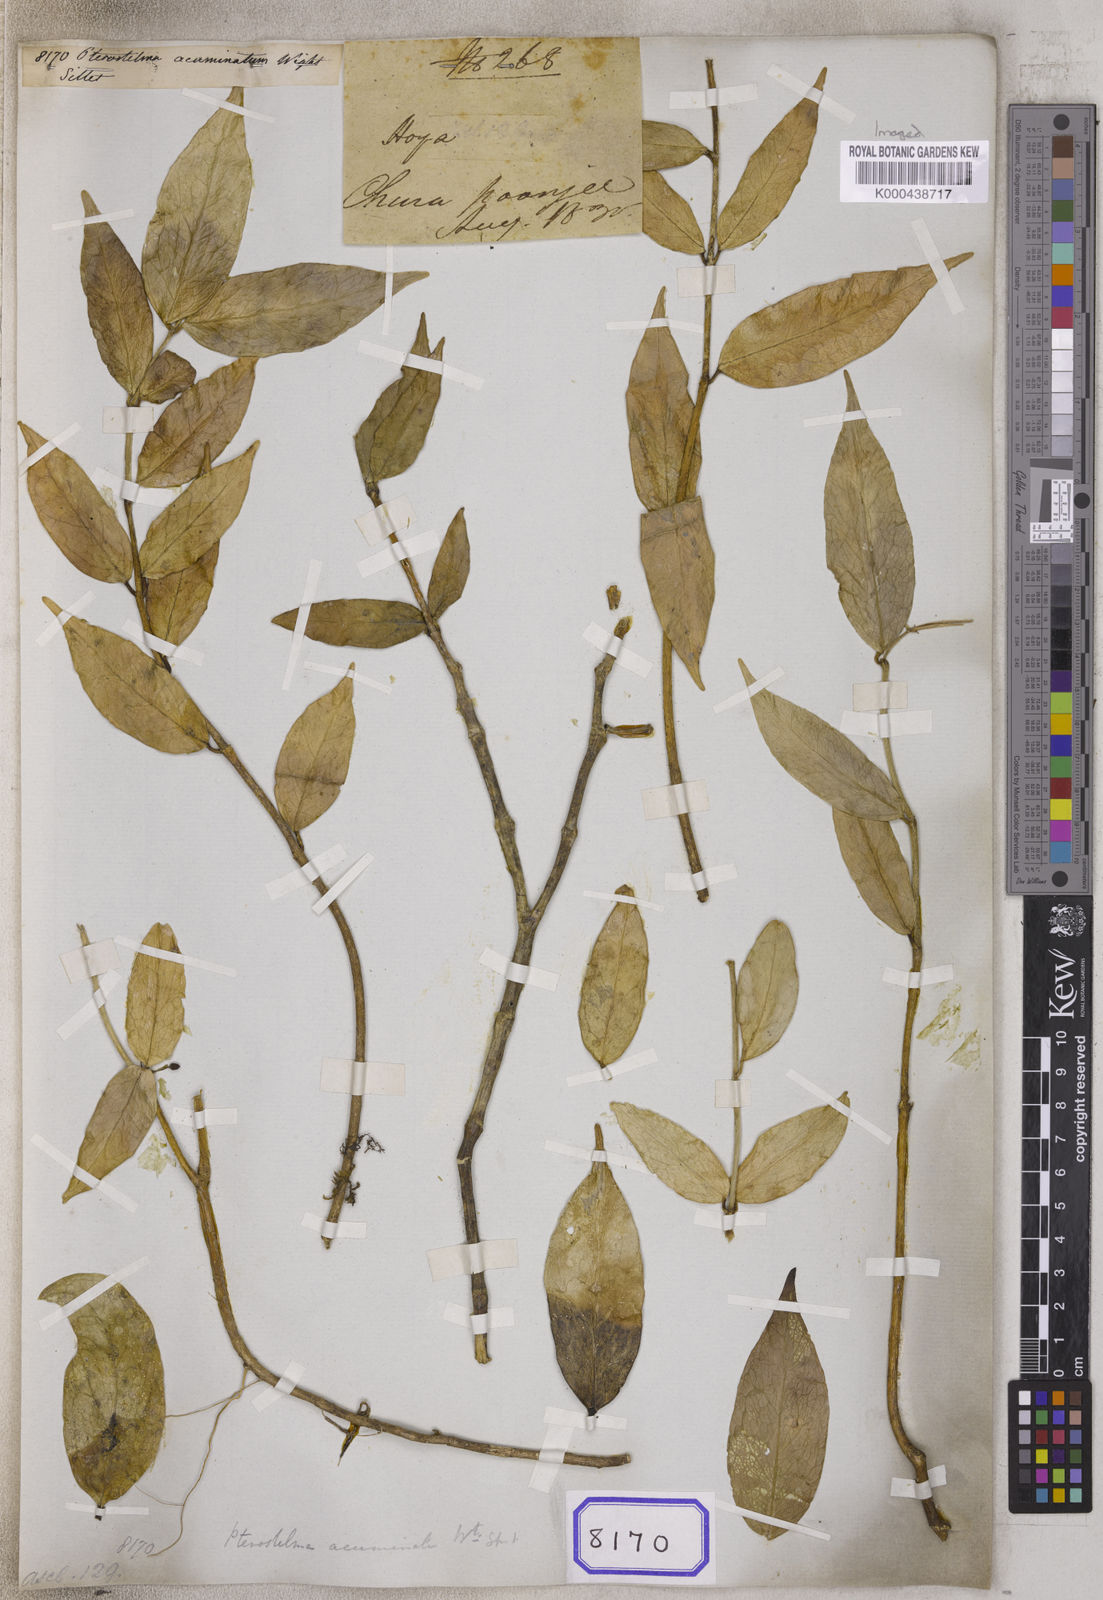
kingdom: Plantae
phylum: Tracheophyta
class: Magnoliopsida
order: Gentianales
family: Apocynaceae
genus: Hoya
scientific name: Hoya acuminata
